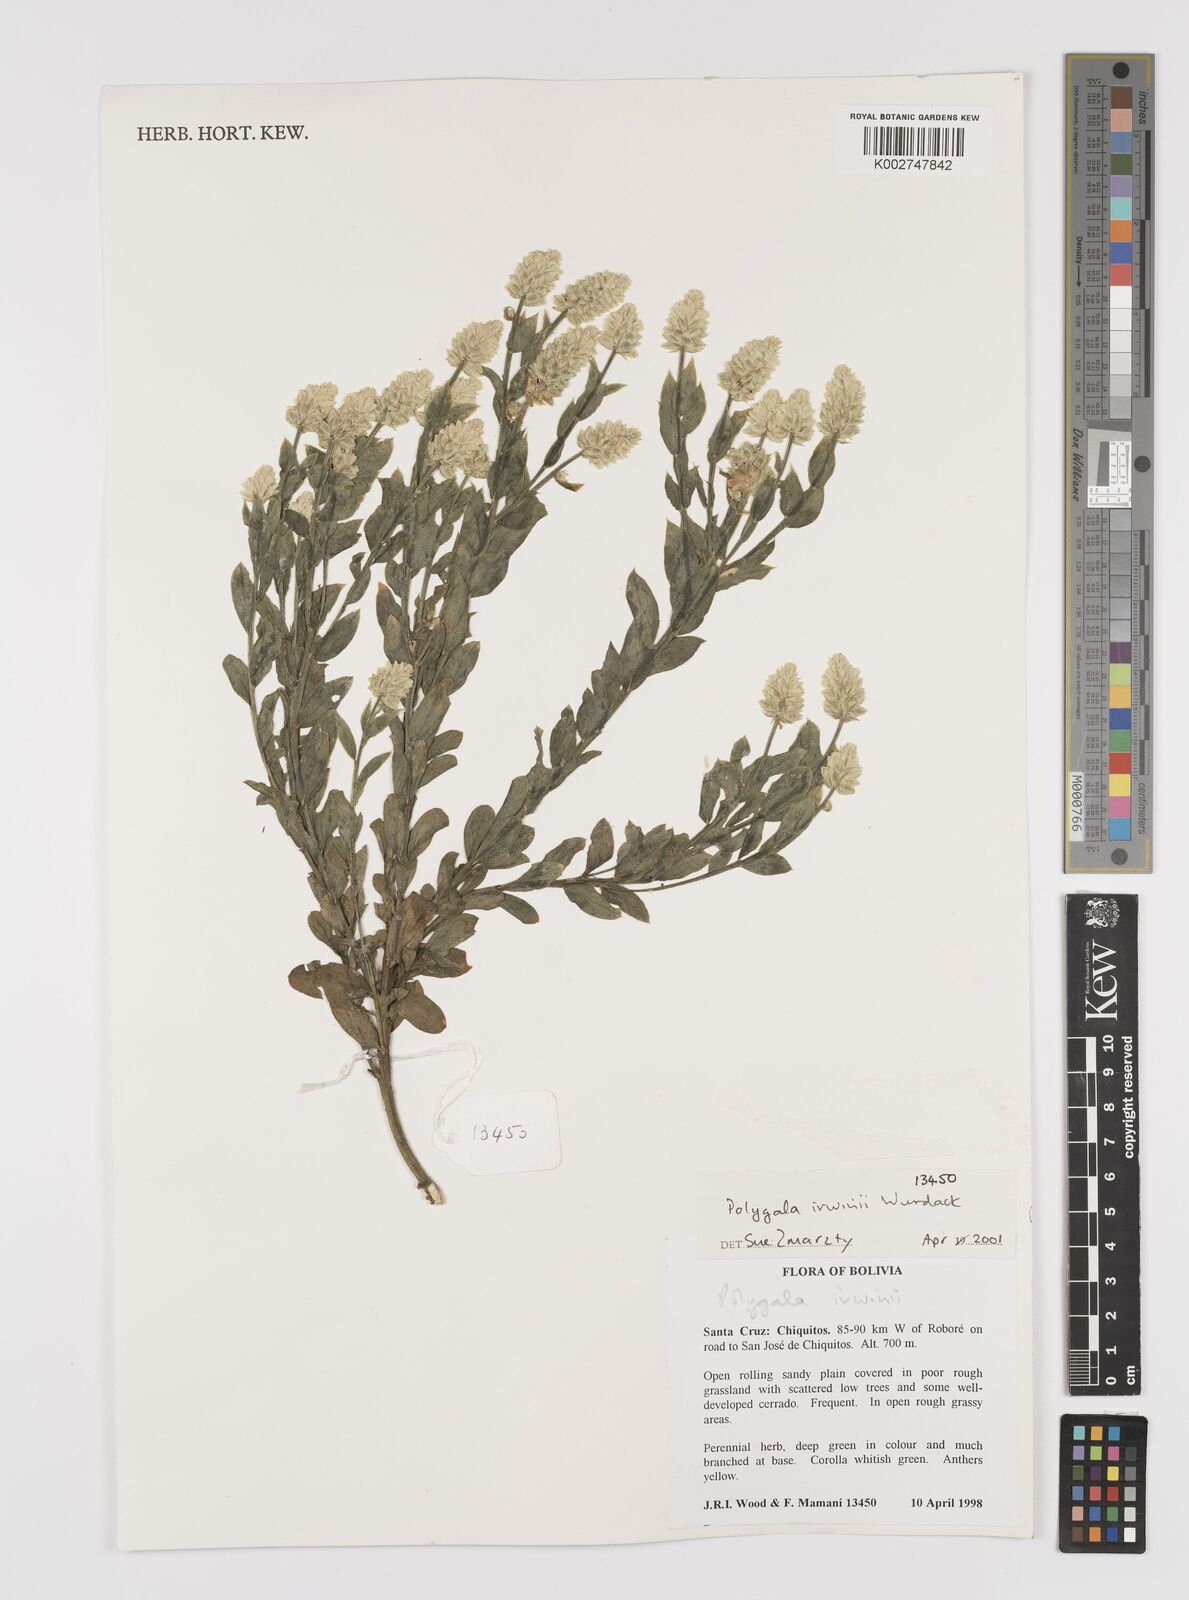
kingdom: Plantae
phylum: Tracheophyta
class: Magnoliopsida
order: Fabales
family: Polygalaceae
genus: Polygala
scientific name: Polygala irwinii
